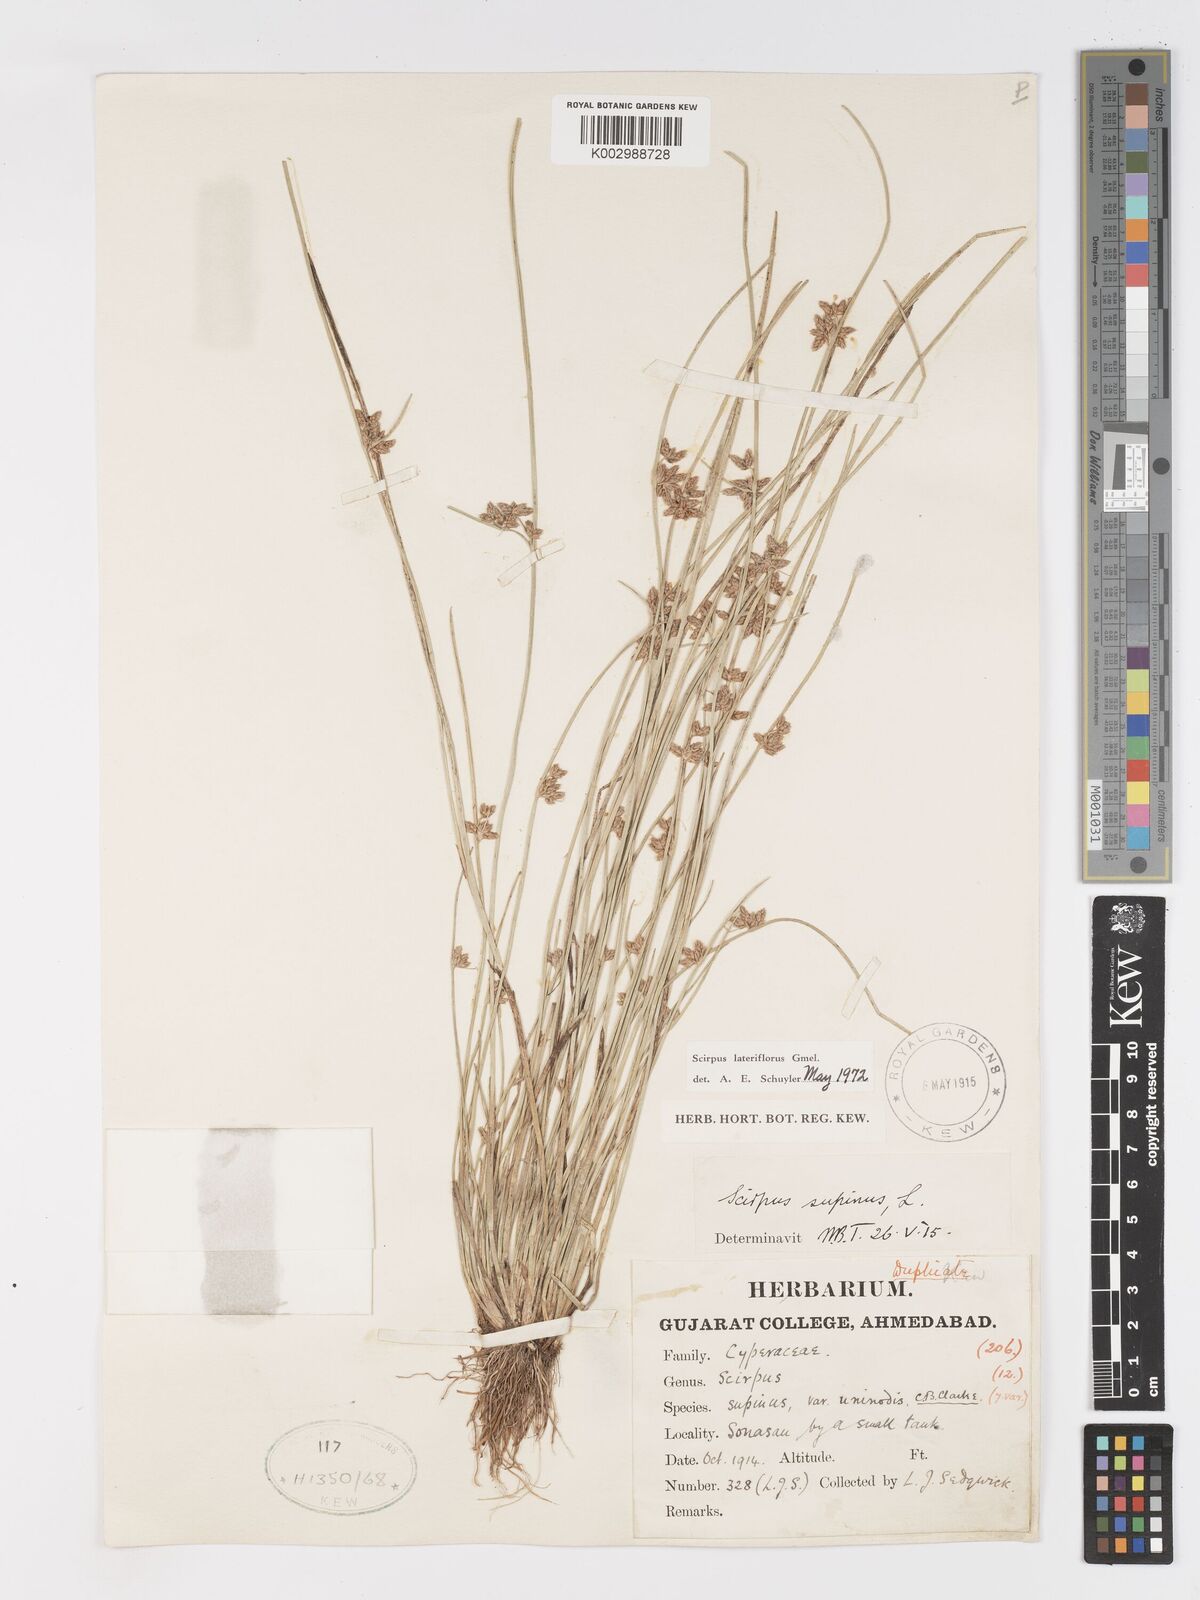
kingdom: Plantae
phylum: Tracheophyta
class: Liliopsida
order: Poales
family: Cyperaceae
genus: Schoenoplectiella
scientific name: Schoenoplectiella lateriflora
